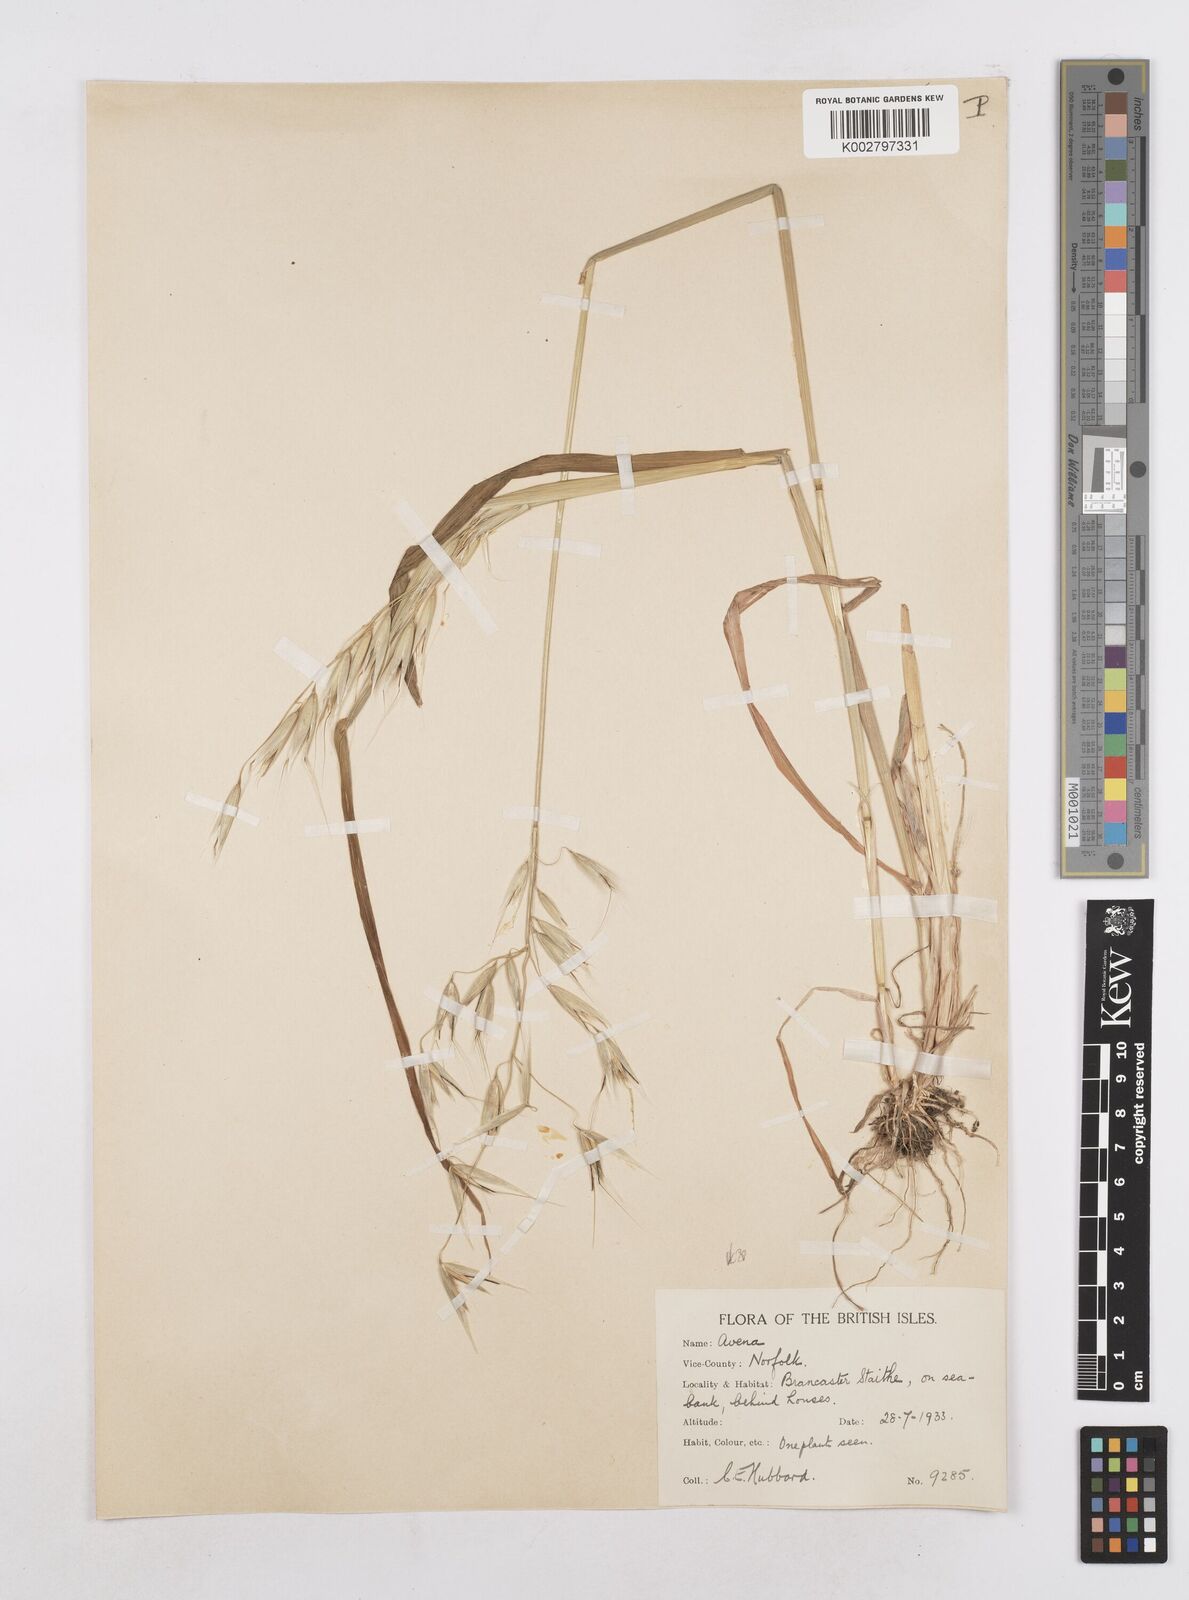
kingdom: Plantae
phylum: Tracheophyta
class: Liliopsida
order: Poales
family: Poaceae
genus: Avena
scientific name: Avena fatua
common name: Wild oat
